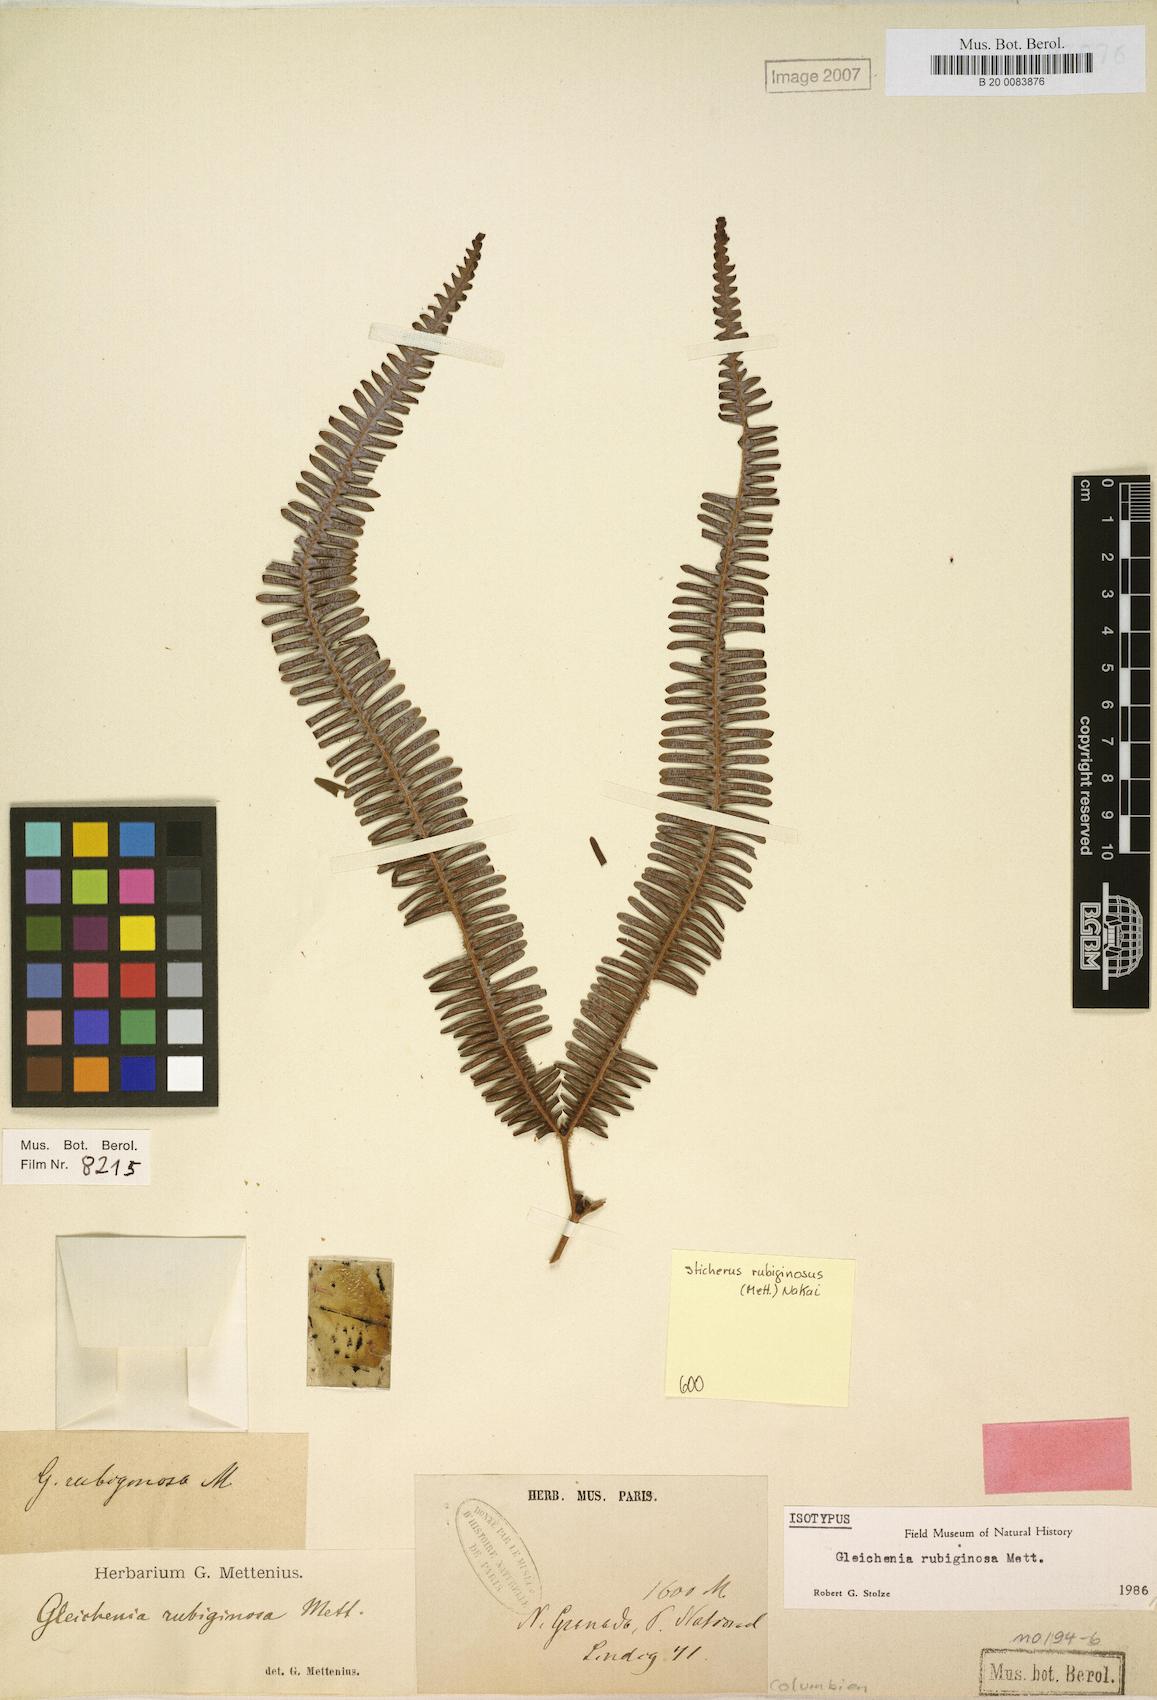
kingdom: Plantae
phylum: Tracheophyta
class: Polypodiopsida
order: Gleicheniales
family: Gleicheniaceae
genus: Sticherus
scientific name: Sticherus rubiginosus
